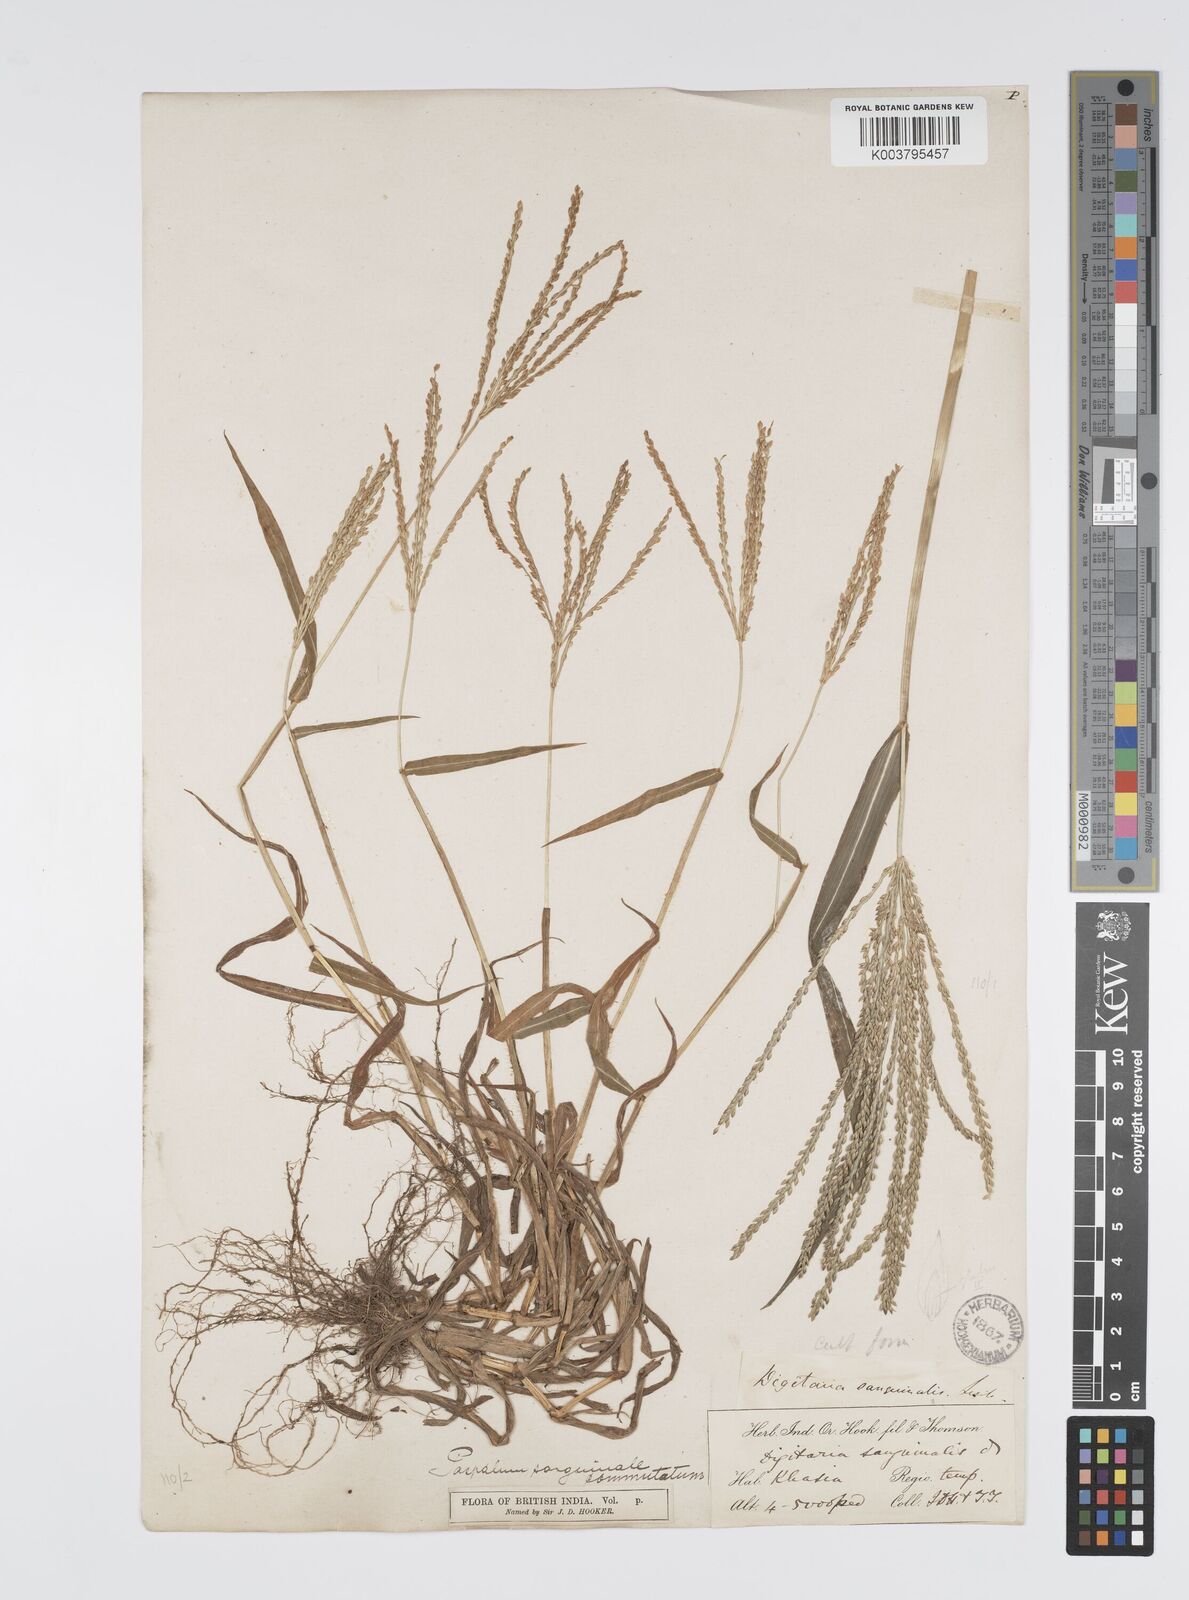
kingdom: Plantae
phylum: Tracheophyta
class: Liliopsida
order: Poales
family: Poaceae
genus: Digitaria
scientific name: Digitaria cruciata
